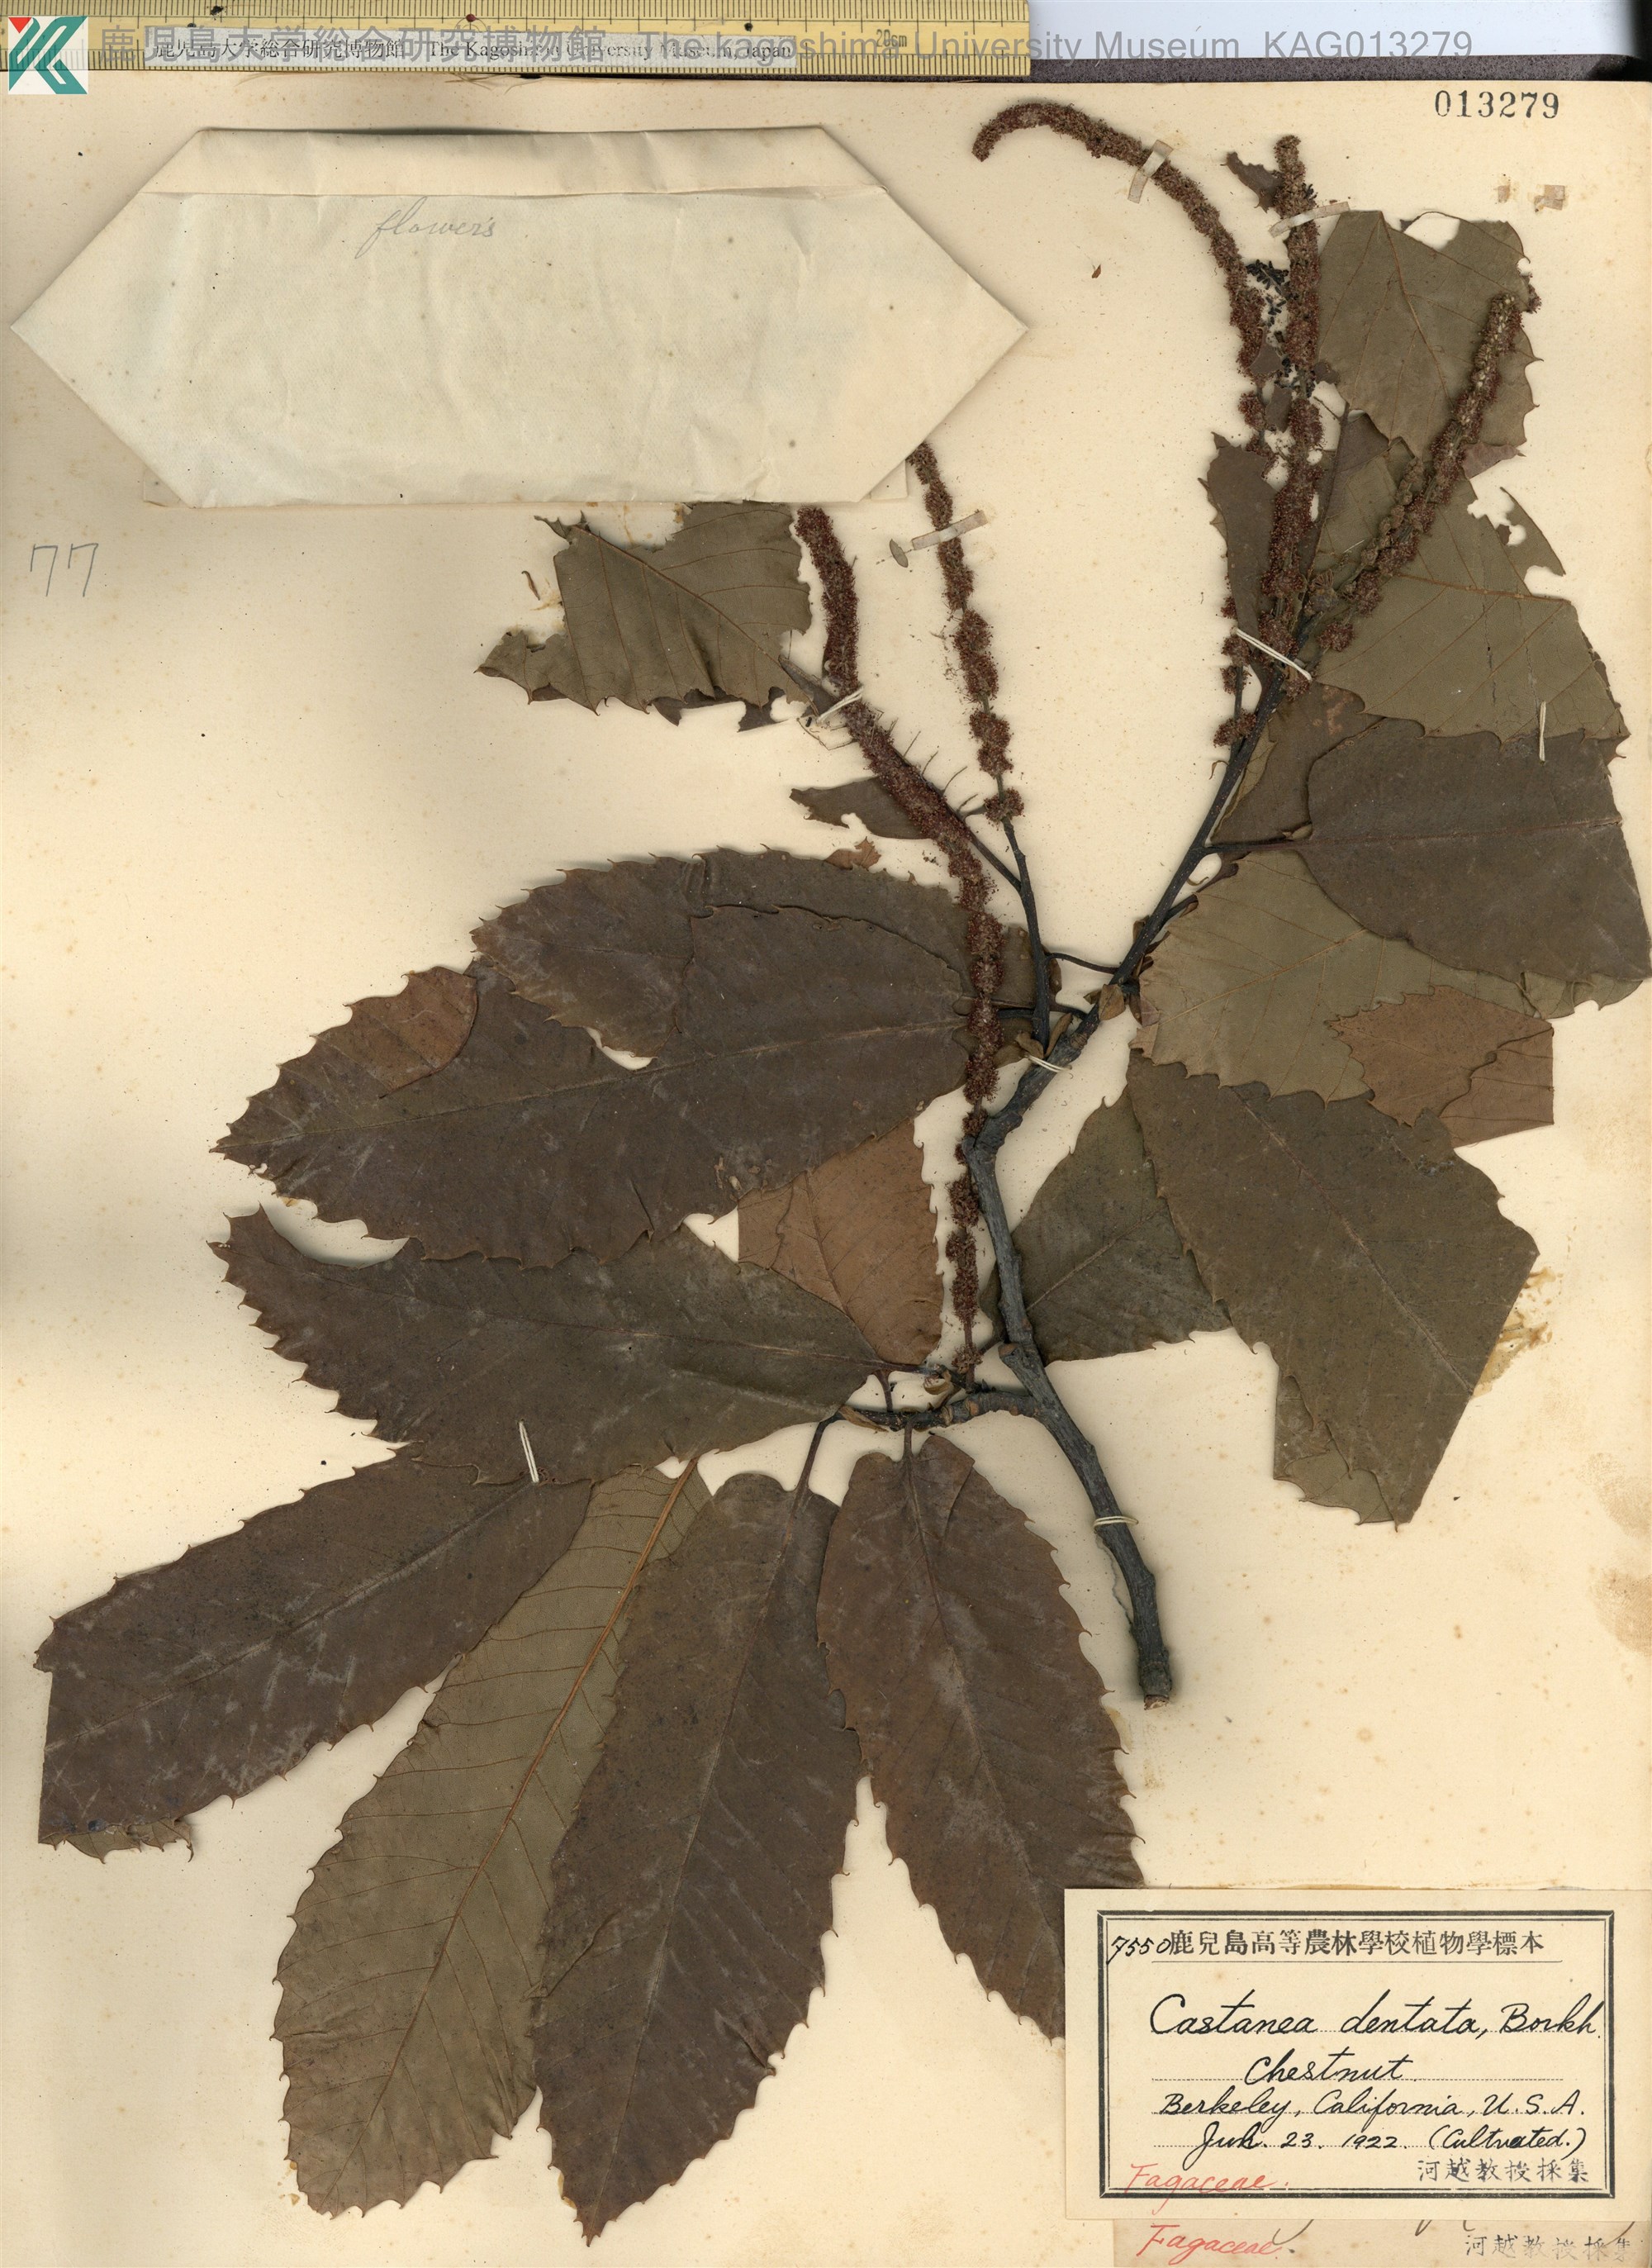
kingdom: Plantae
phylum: Tracheophyta
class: Magnoliopsida
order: Fagales
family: Fagaceae
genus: Castanea
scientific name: Castanea dentata
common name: American chestnut
